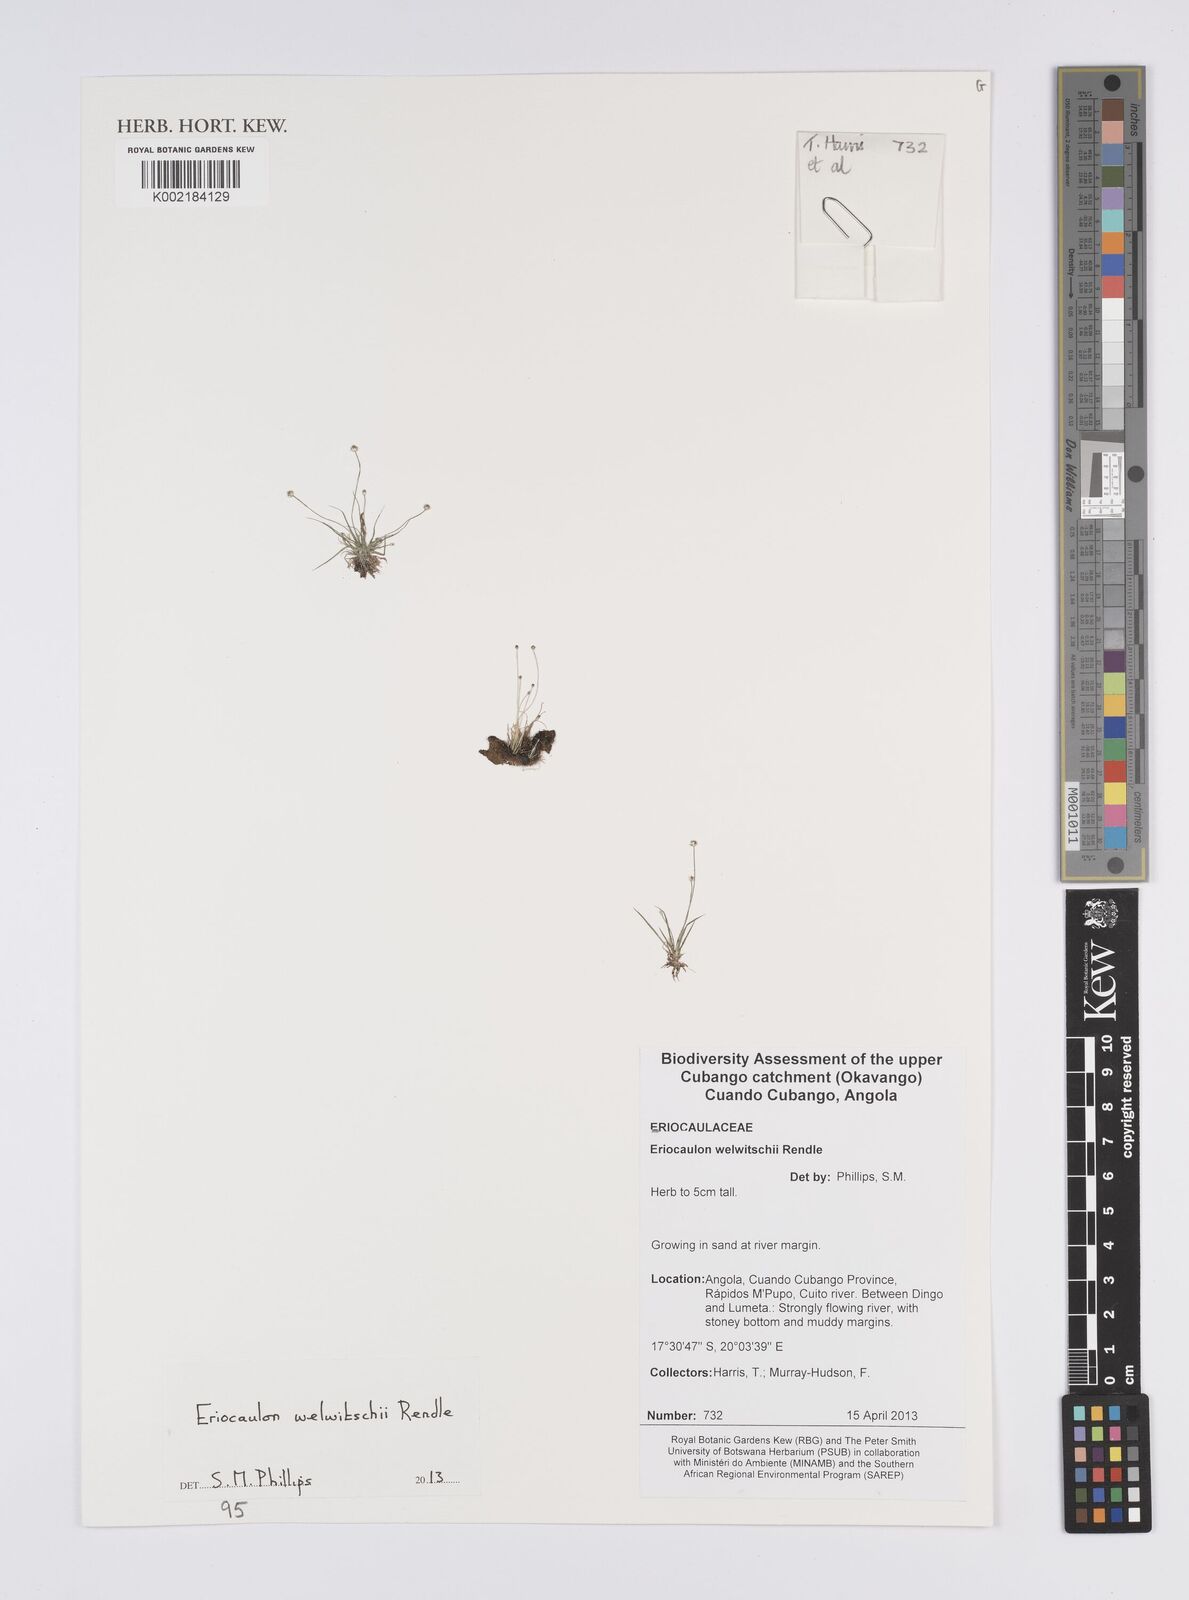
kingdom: Plantae
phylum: Tracheophyta
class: Liliopsida
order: Poales
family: Eriocaulaceae
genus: Eriocaulon
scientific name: Eriocaulon welwitschii
